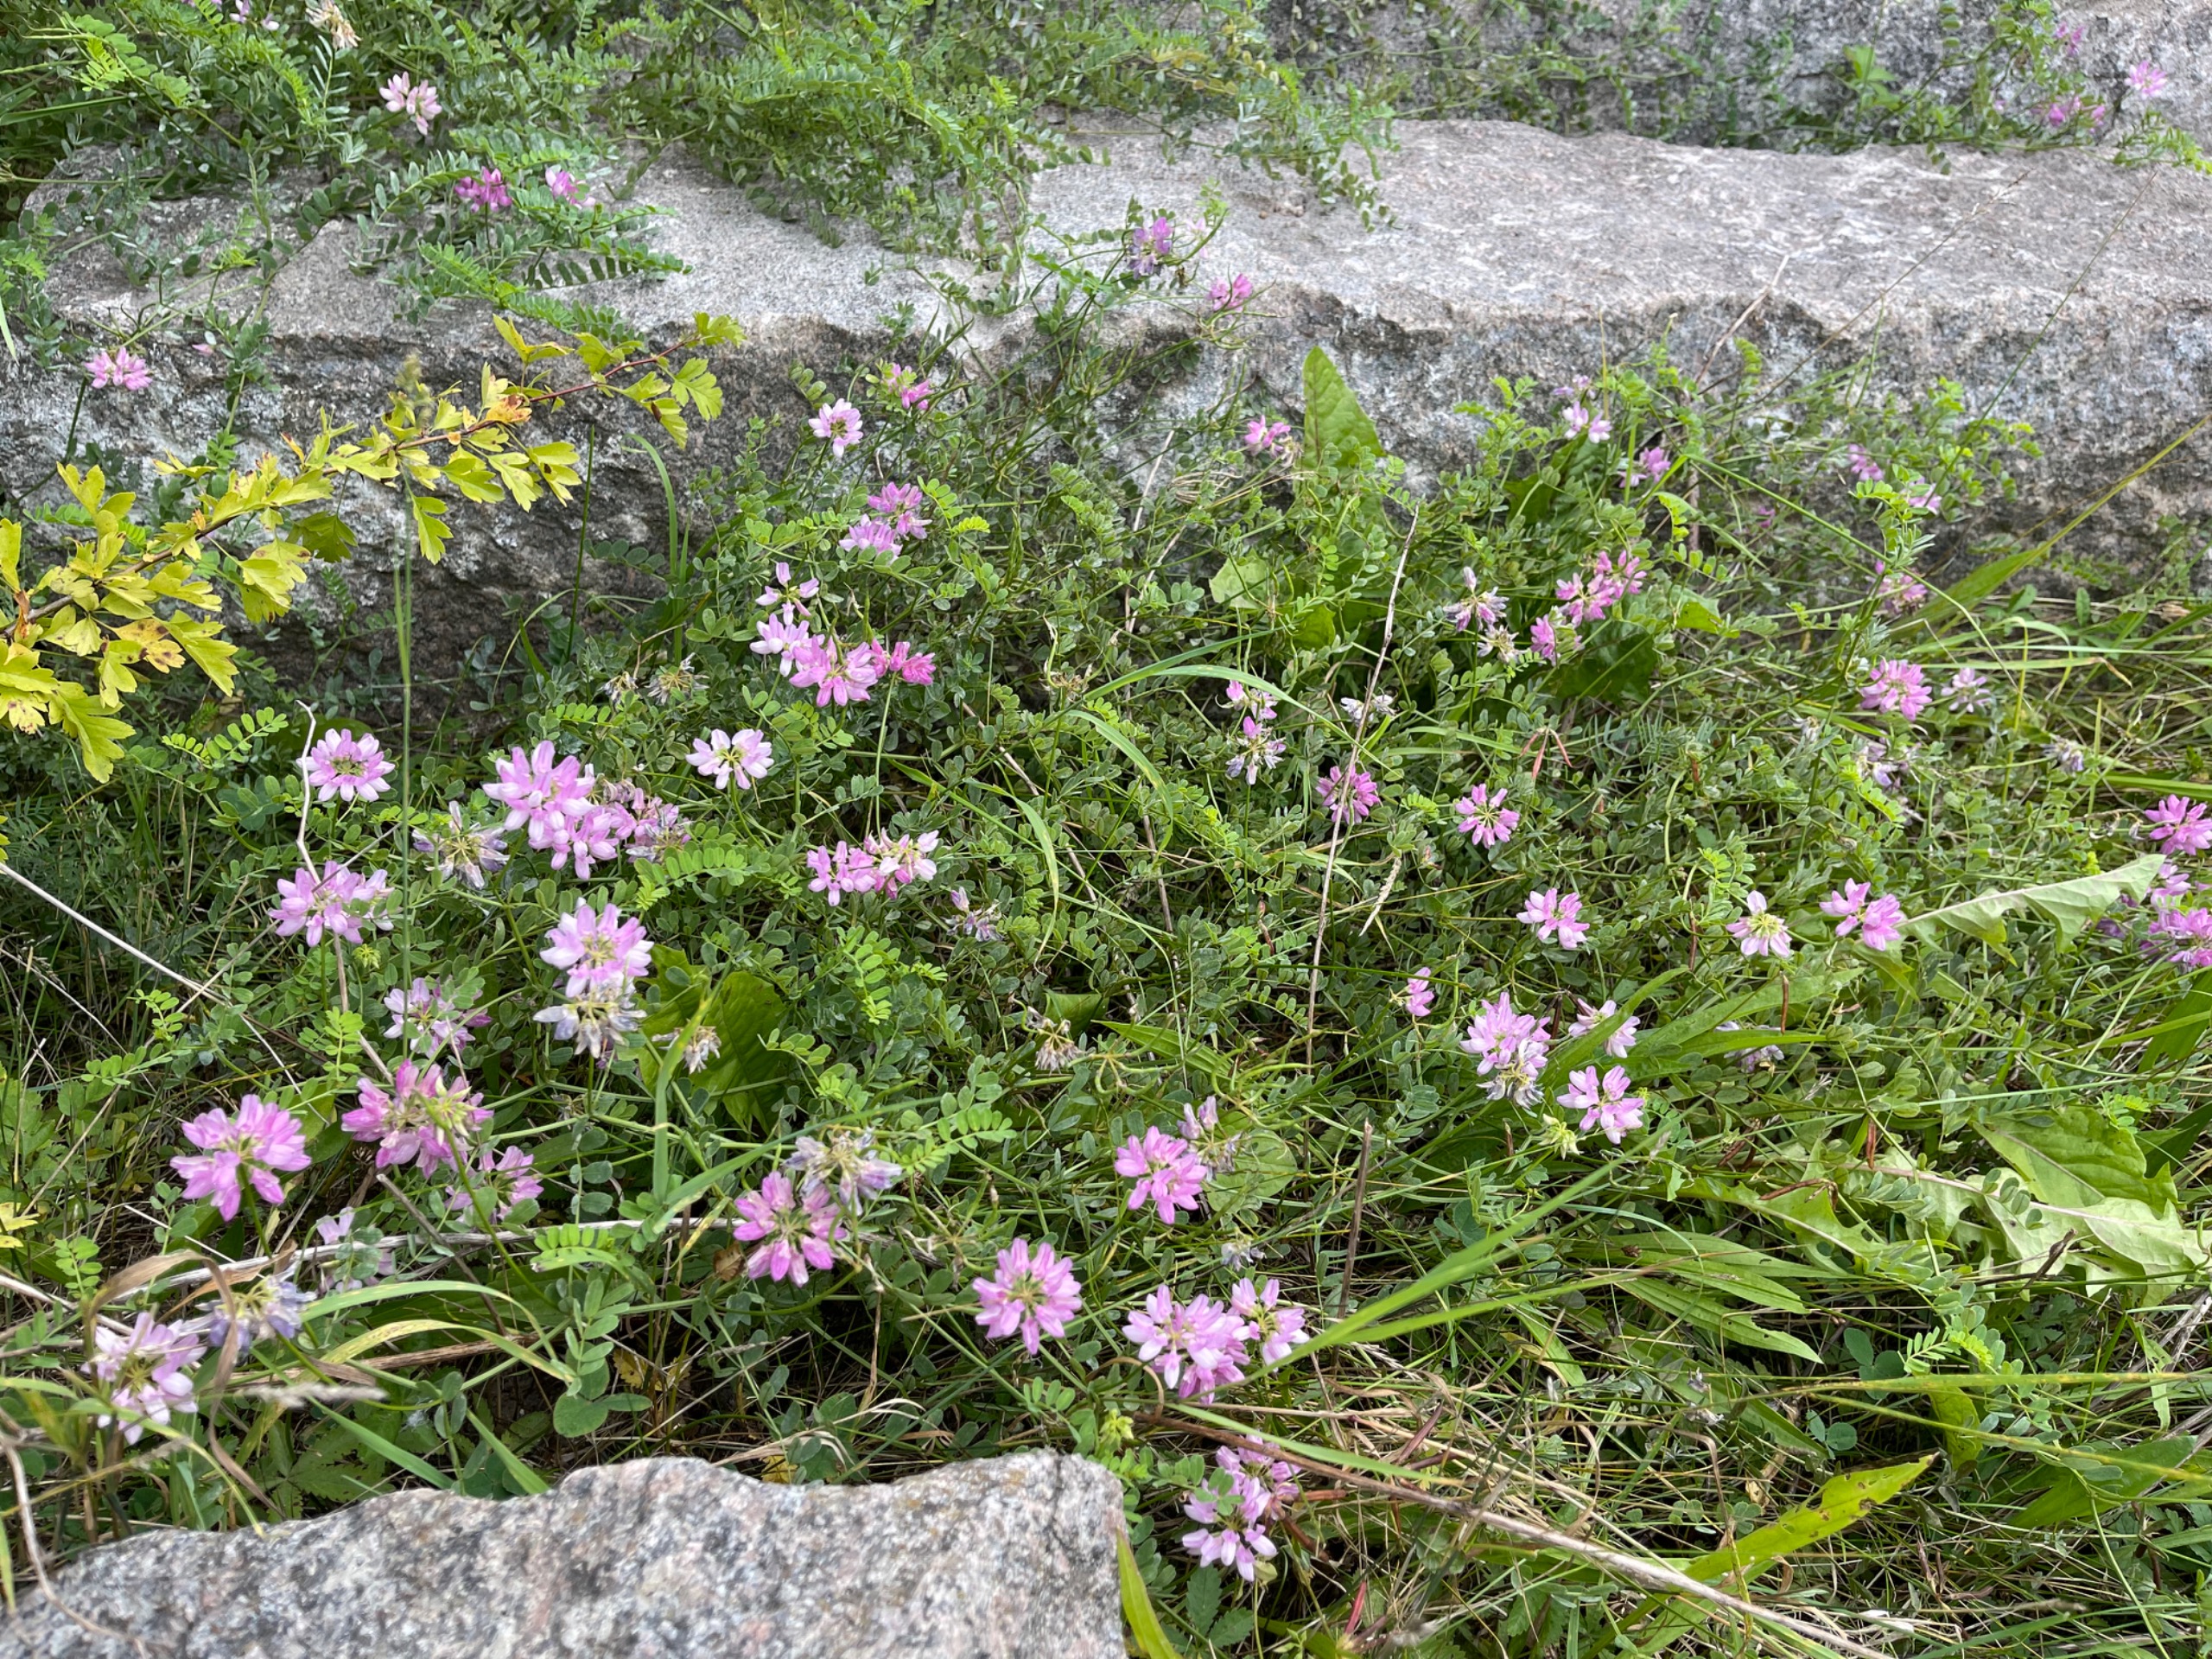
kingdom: Plantae
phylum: Tracheophyta
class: Magnoliopsida
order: Fabales
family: Fabaceae
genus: Coronilla
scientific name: Coronilla varia
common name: Giftig kronvikke
